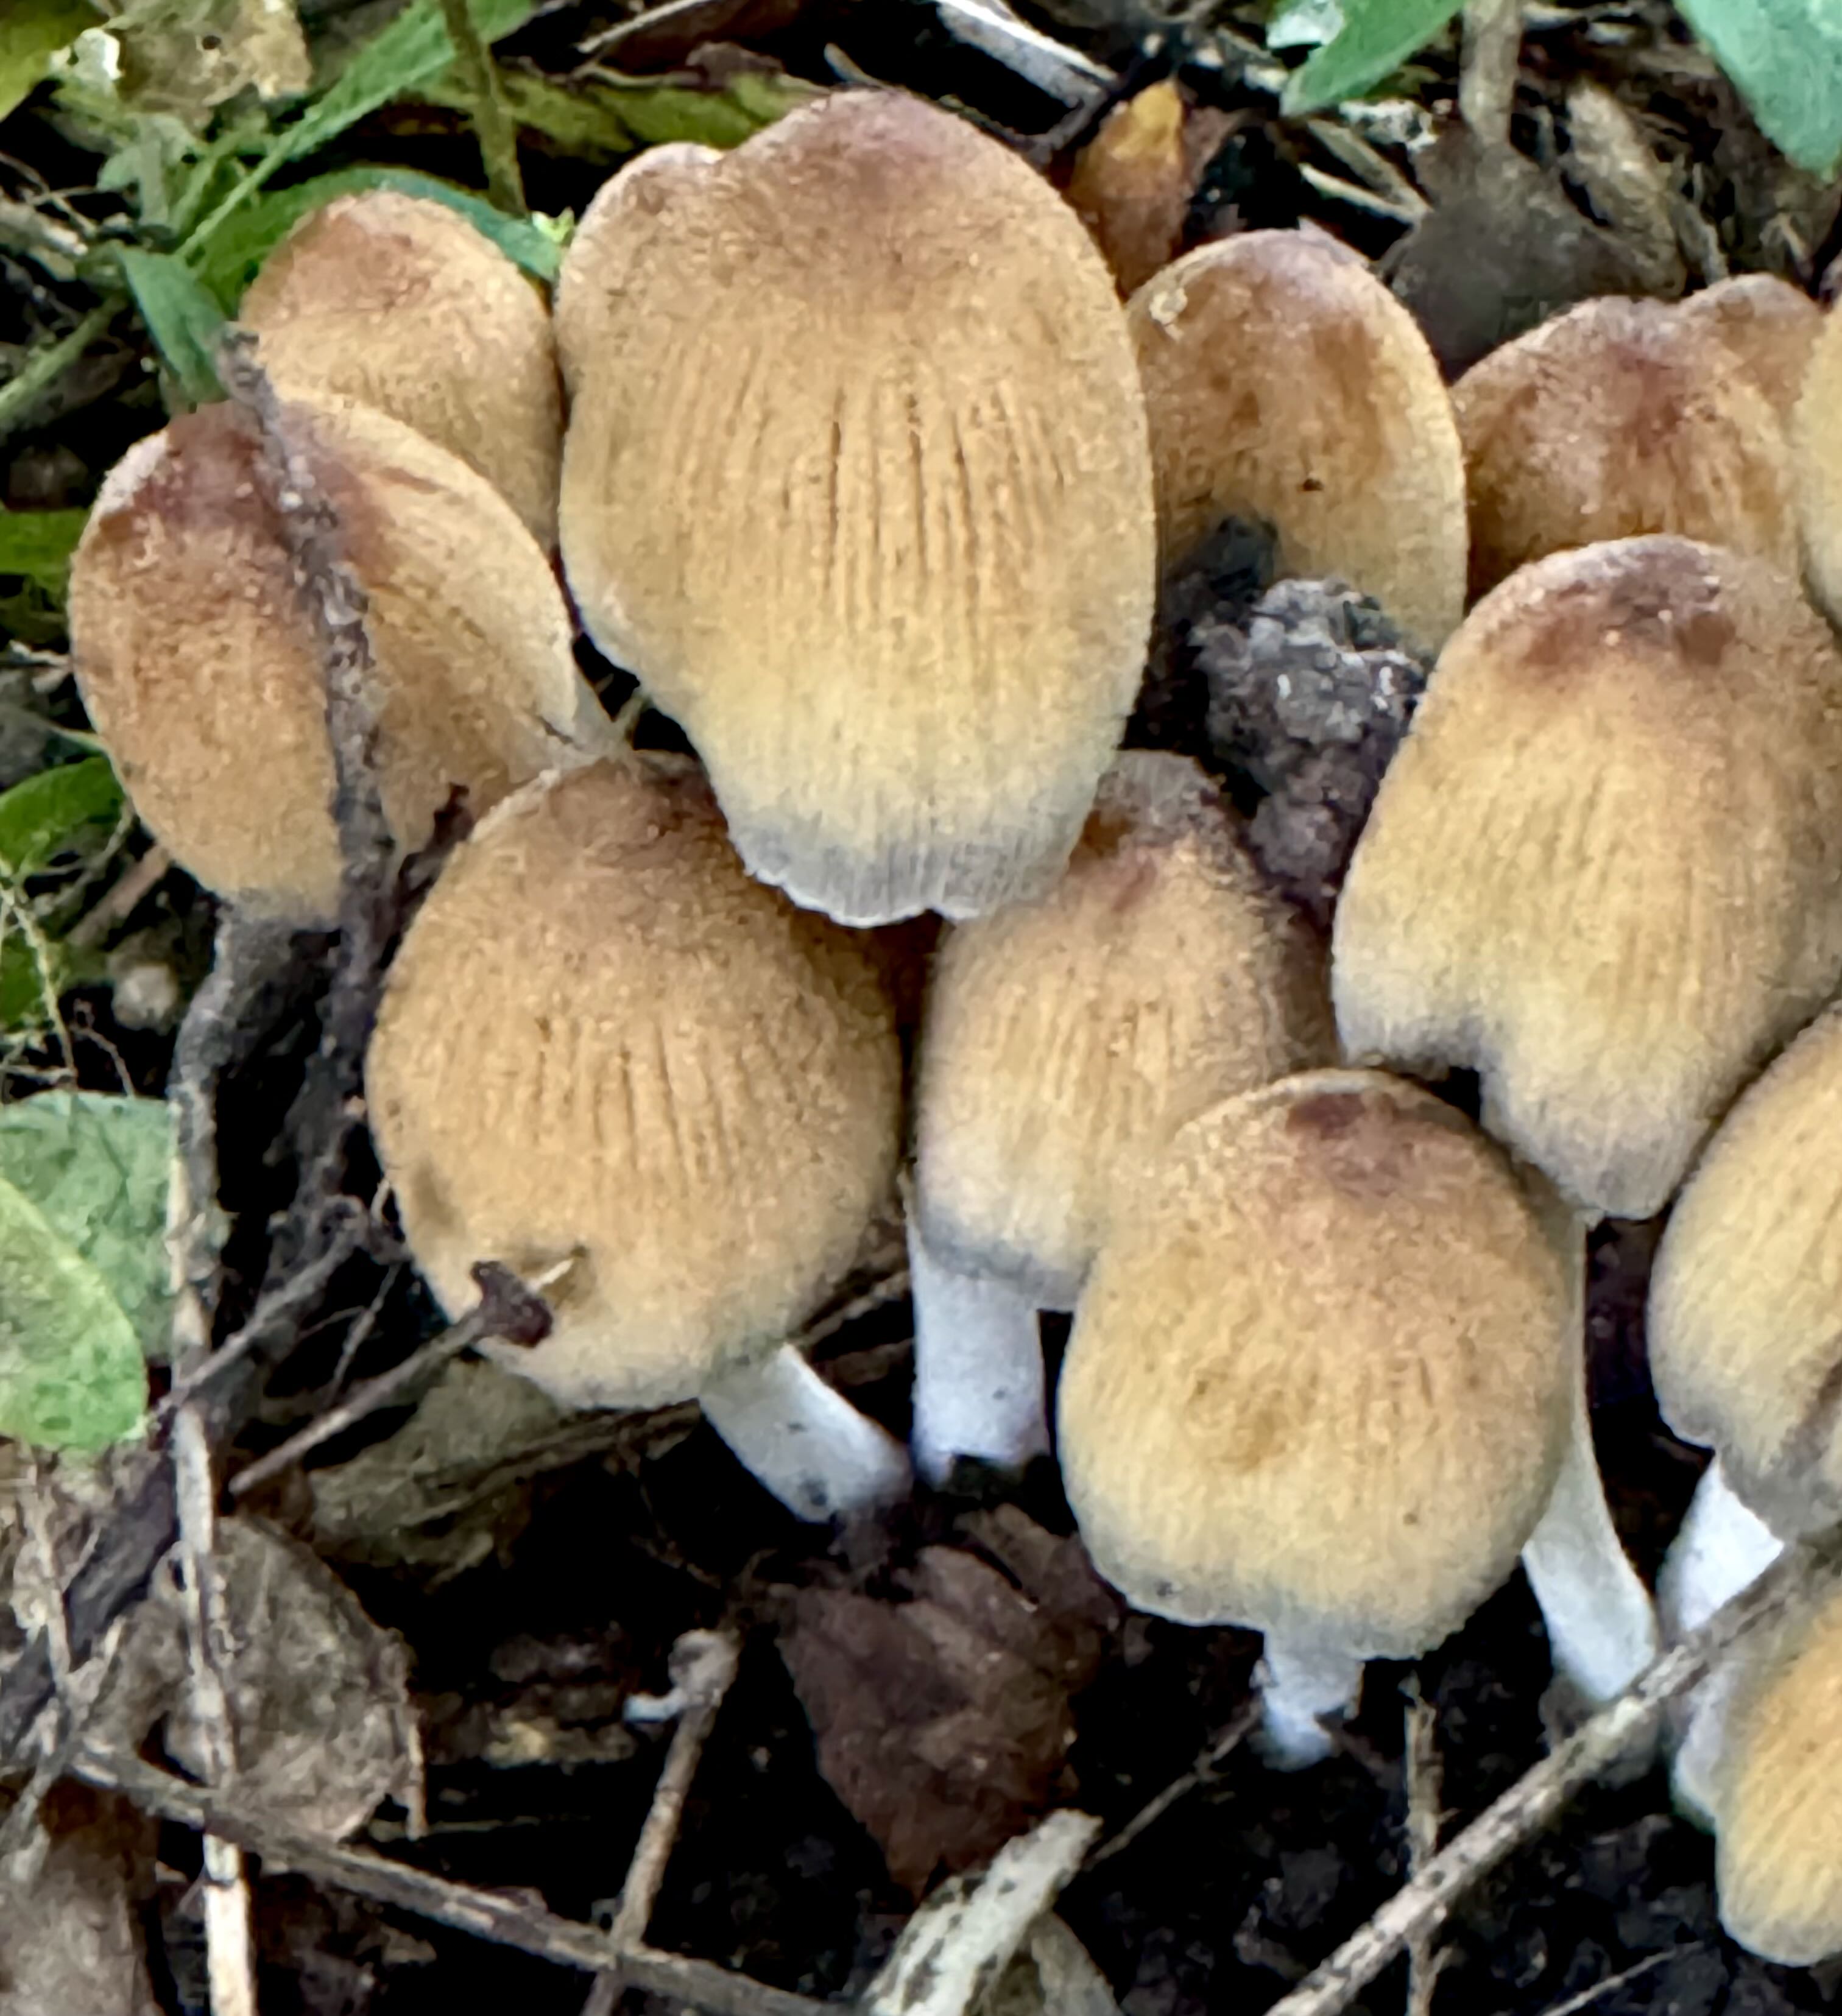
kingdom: Fungi
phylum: Basidiomycota
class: Agaricomycetes
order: Agaricales
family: Psathyrellaceae
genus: Coprinellus
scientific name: Coprinellus micaceus
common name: glimmer-blækhat
